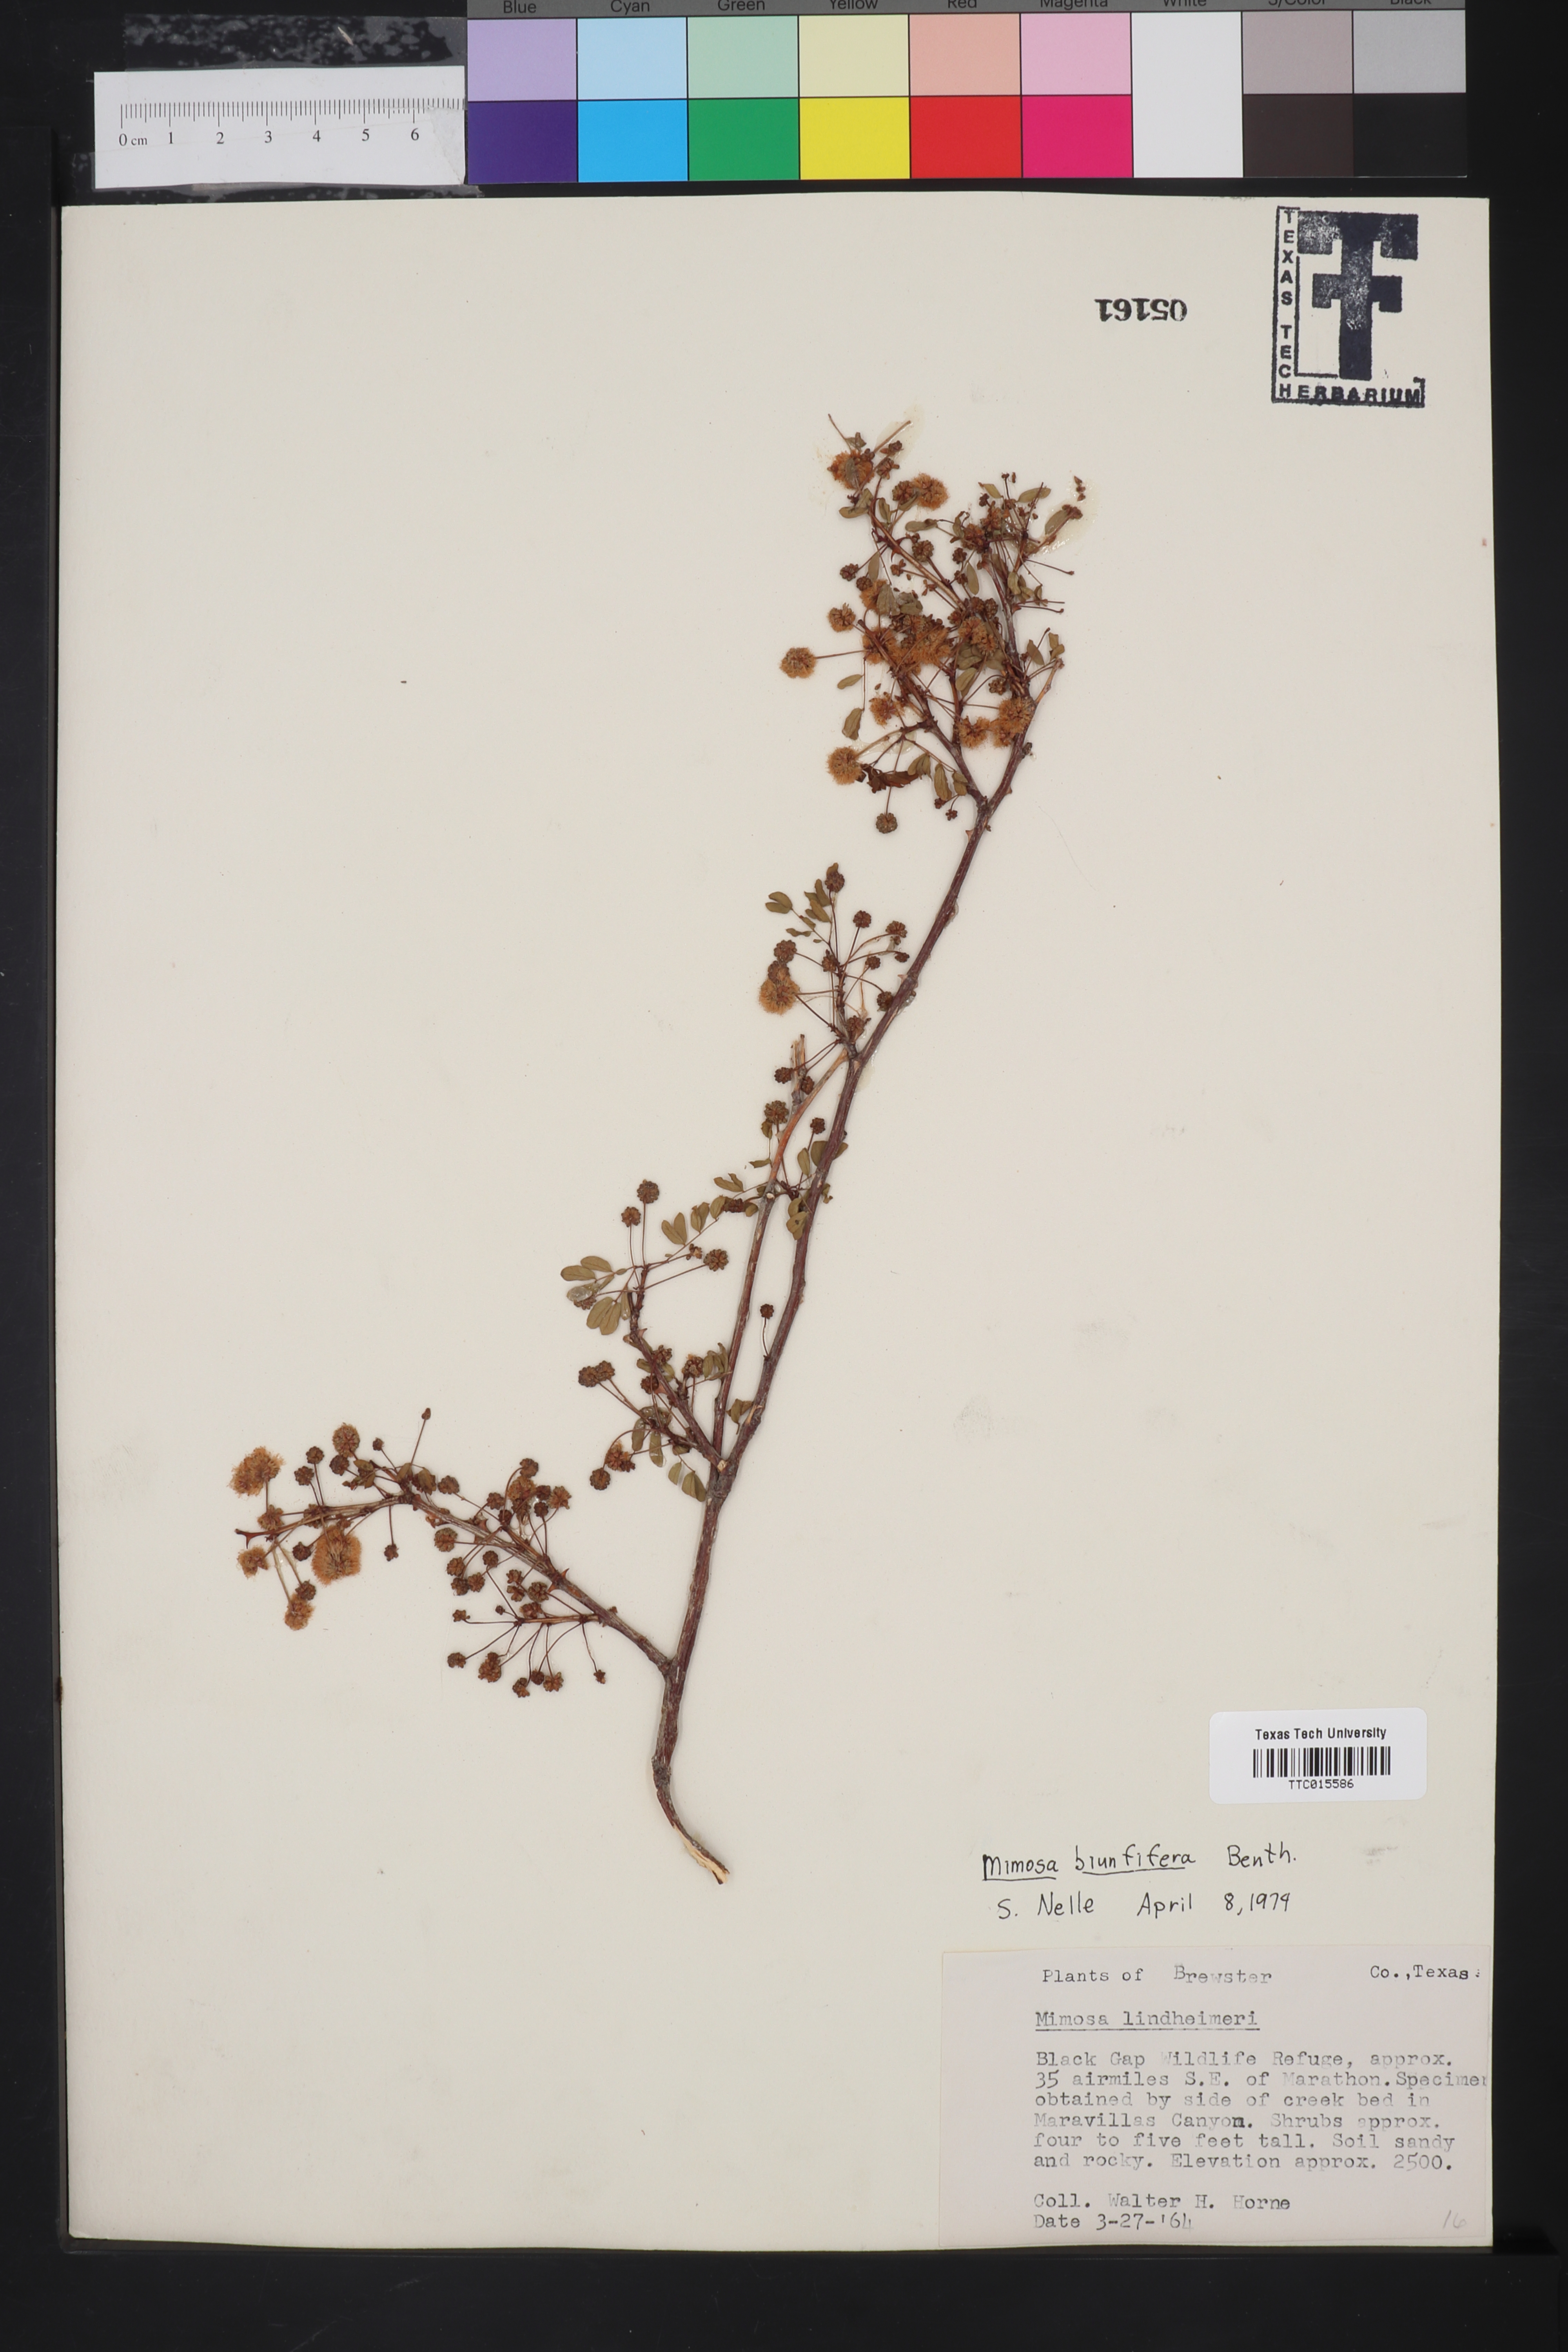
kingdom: Plantae
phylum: Tracheophyta
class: Magnoliopsida
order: Fabales
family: Fabaceae
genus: Mimosa
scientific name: Mimosa biuncifera
